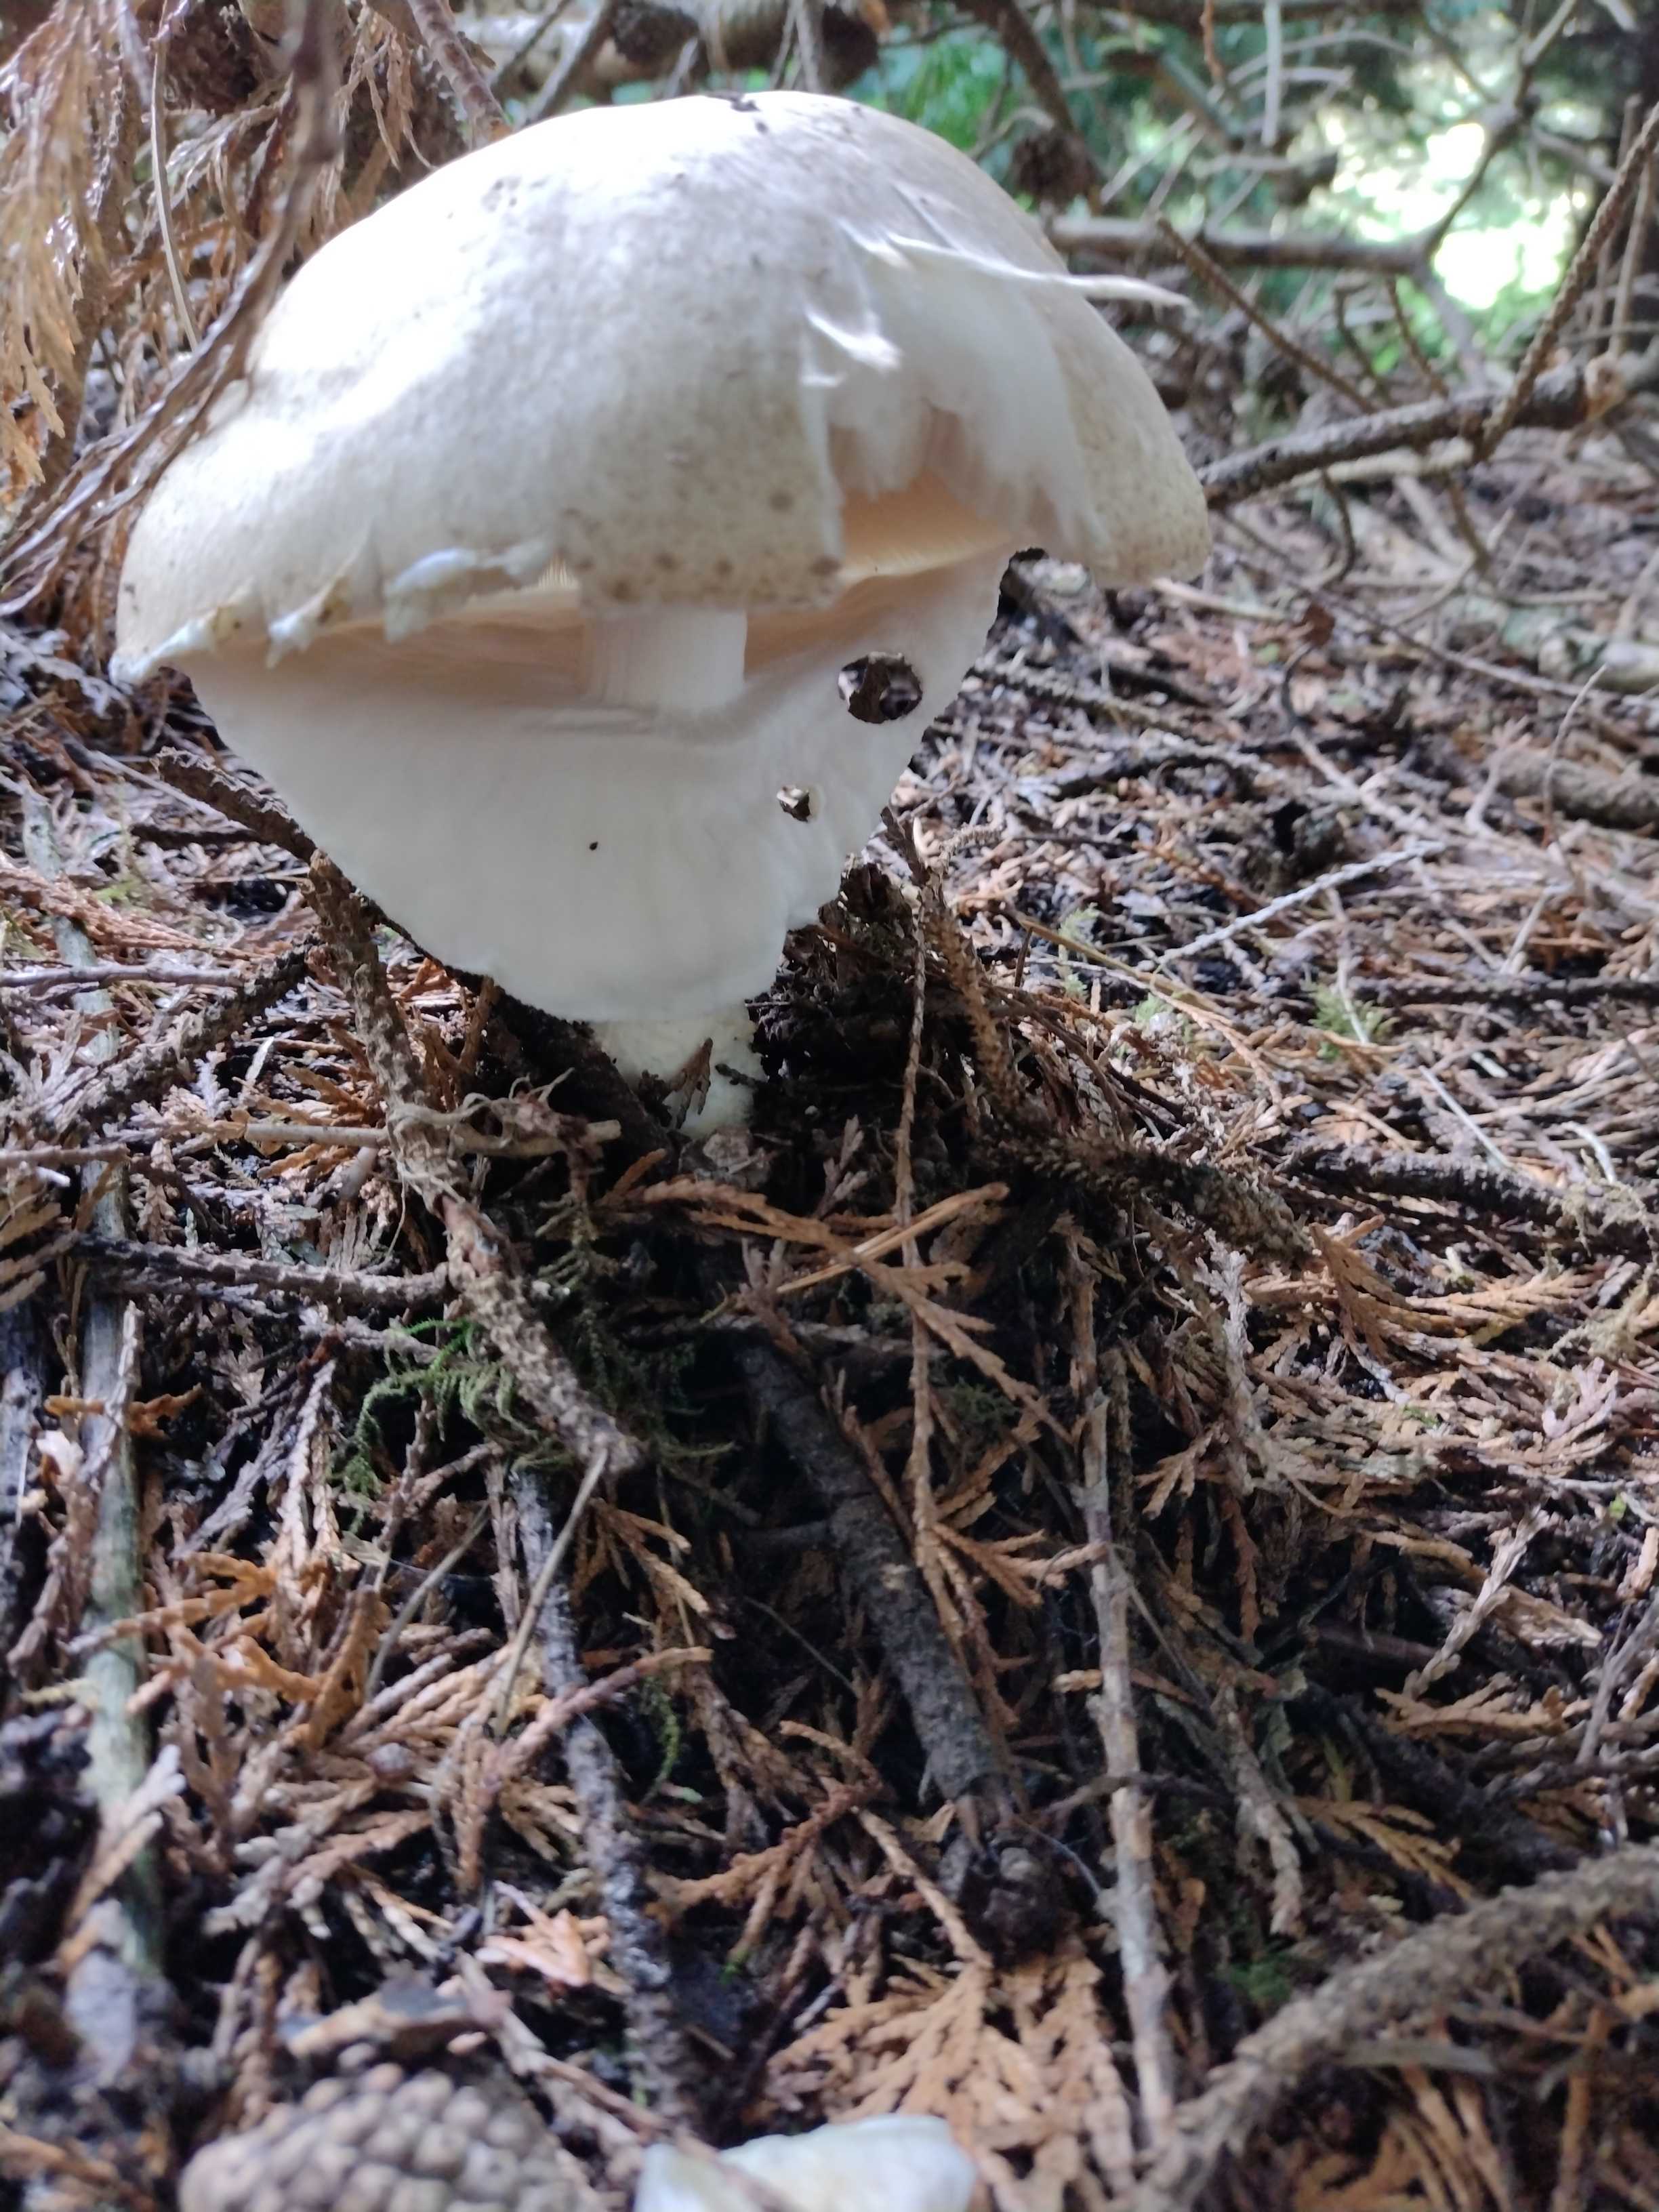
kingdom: Fungi
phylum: Basidiomycota
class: Agaricomycetes
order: Agaricales
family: Agaricaceae
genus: Agaricus
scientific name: Agaricus augustus
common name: prægtig champignon
